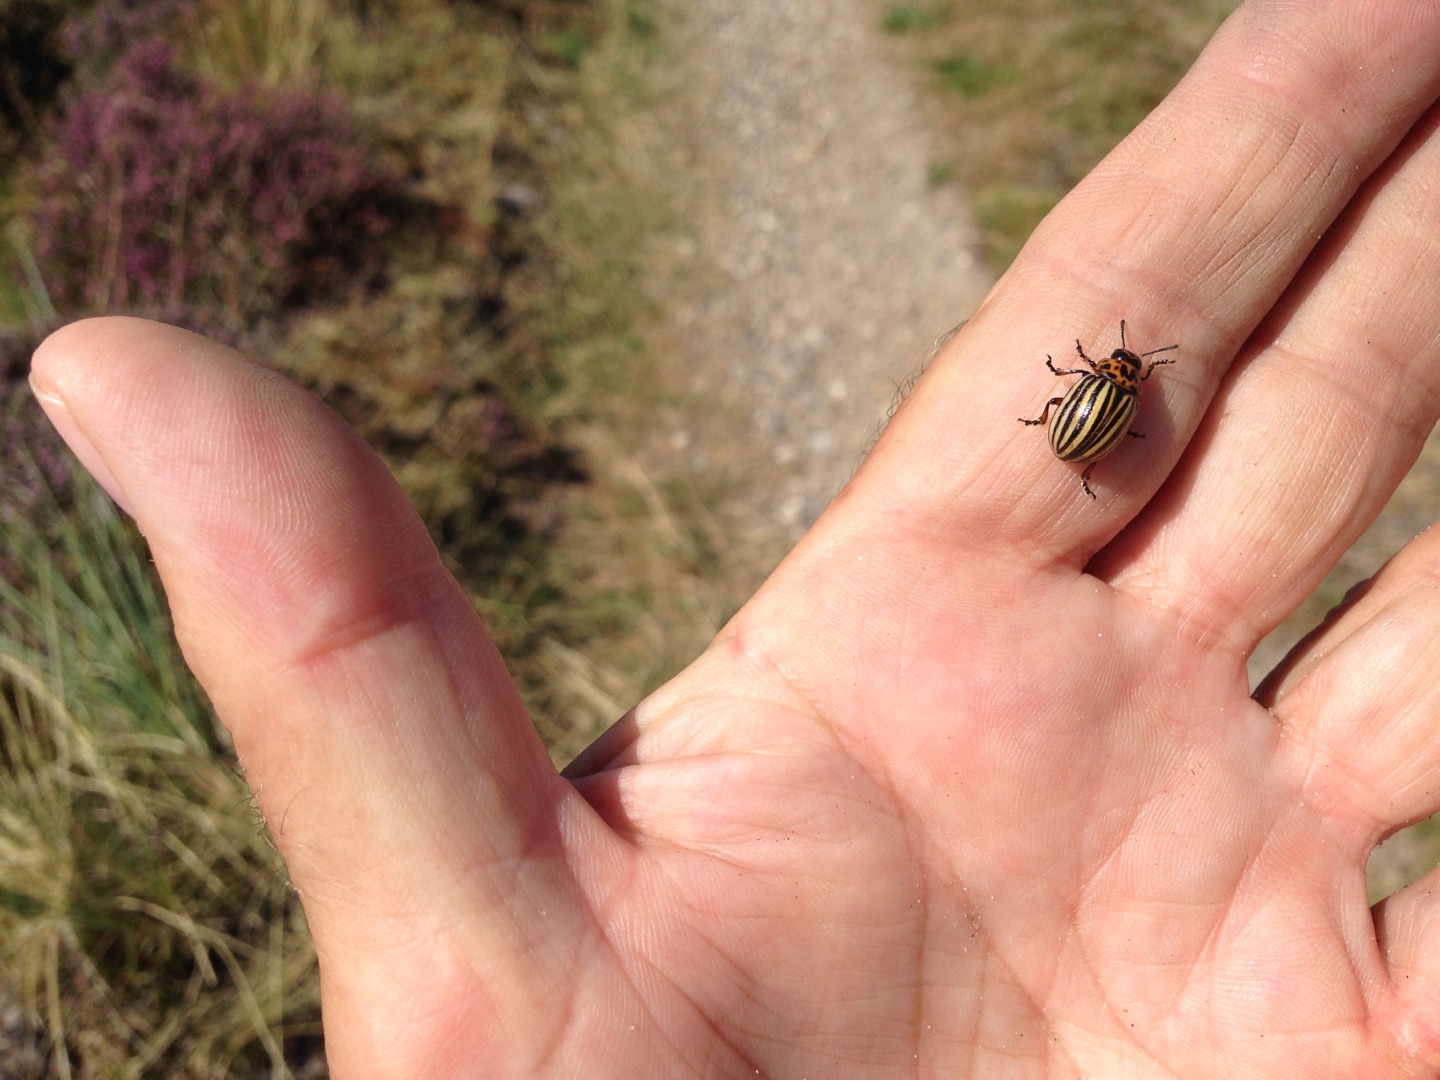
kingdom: Animalia
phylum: Arthropoda
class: Insecta
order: Coleoptera
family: Chrysomelidae
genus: Leptinotarsa
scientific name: Leptinotarsa decemlineata
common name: Coloradobille
